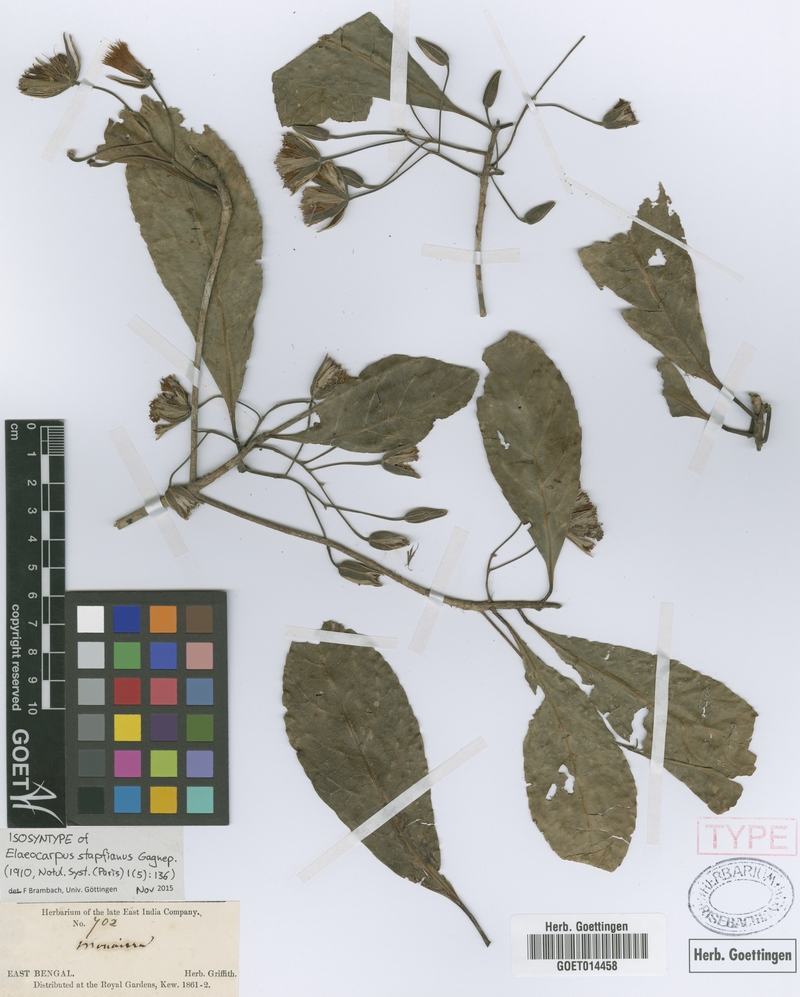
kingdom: Plantae
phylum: Tracheophyta
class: Magnoliopsida
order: Oxalidales
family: Elaeocarpaceae
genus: Elaeocarpus
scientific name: Elaeocarpus stapfianus
